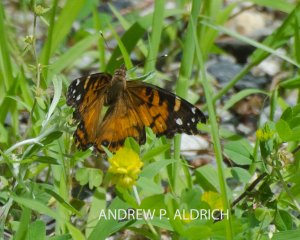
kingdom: Animalia
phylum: Arthropoda
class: Insecta
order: Lepidoptera
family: Nymphalidae
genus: Vanessa
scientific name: Vanessa virginiensis
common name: American Lady
